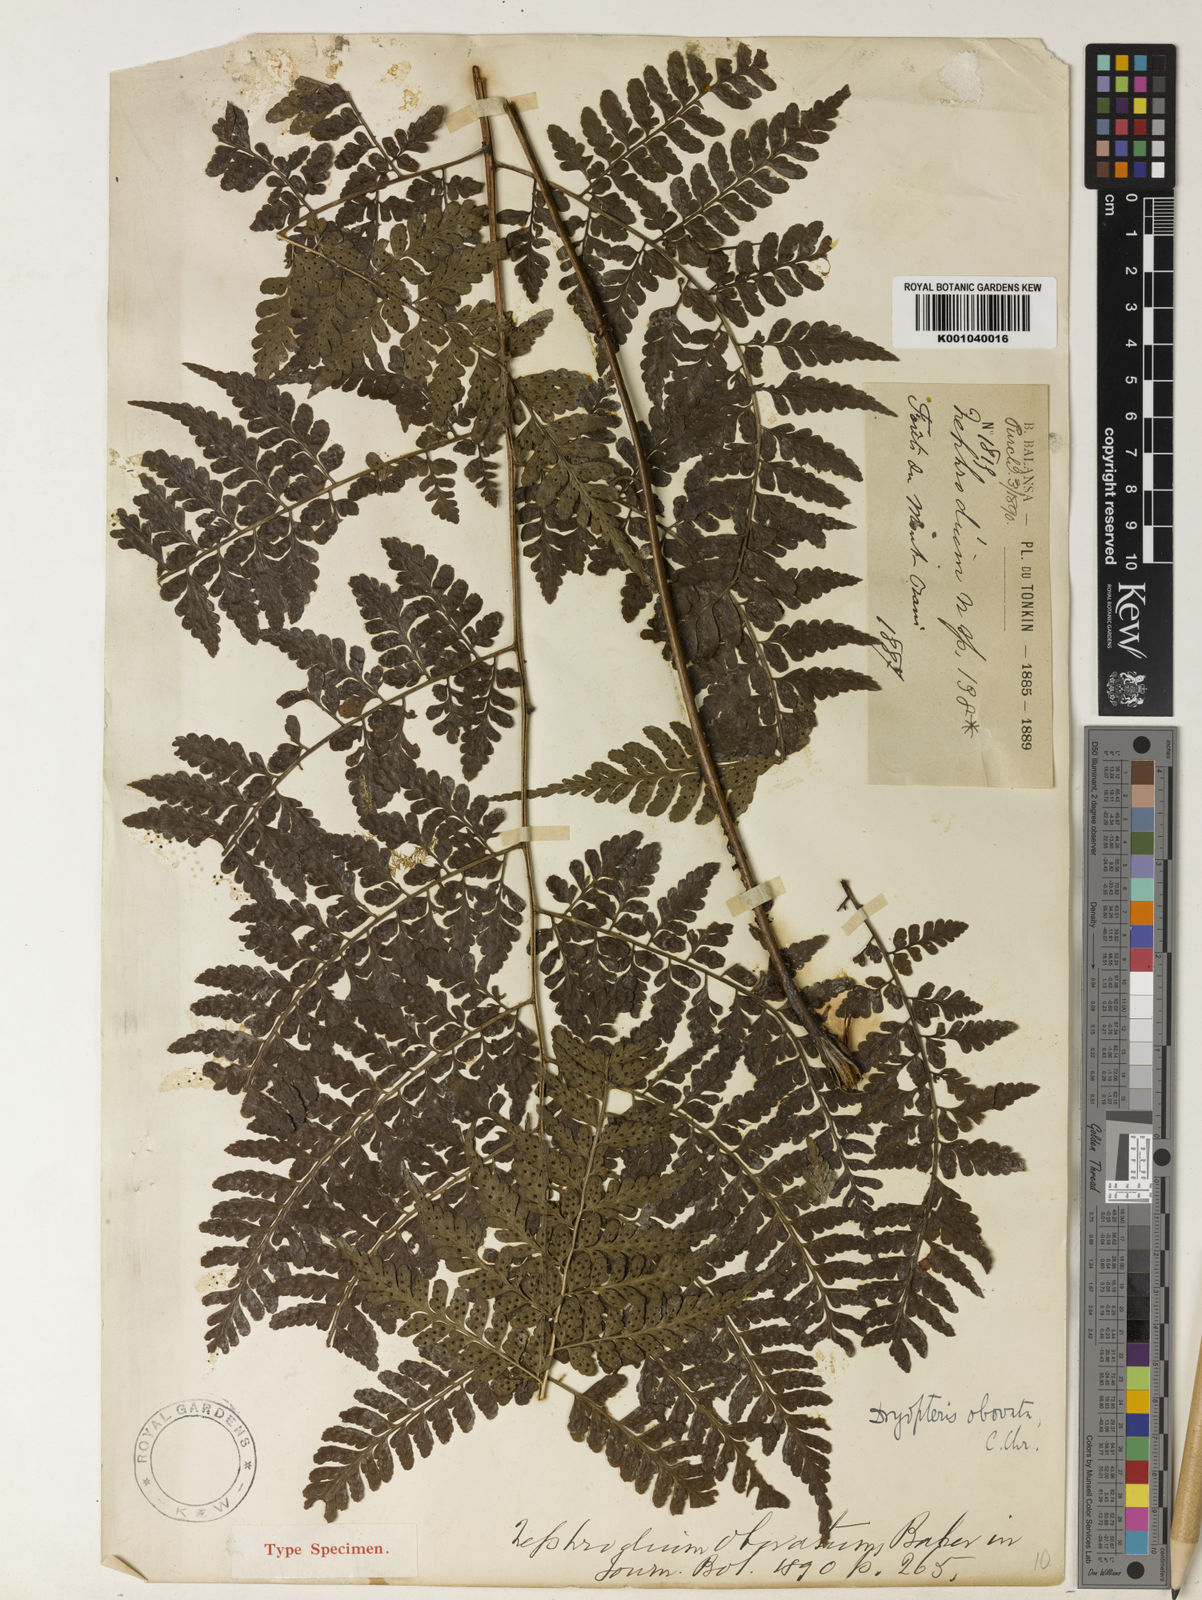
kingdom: Plantae
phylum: Tracheophyta
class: Polypodiopsida
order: Polypodiales
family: Dryopteridaceae
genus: Dryopteris
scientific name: Dryopteris hasseltii
